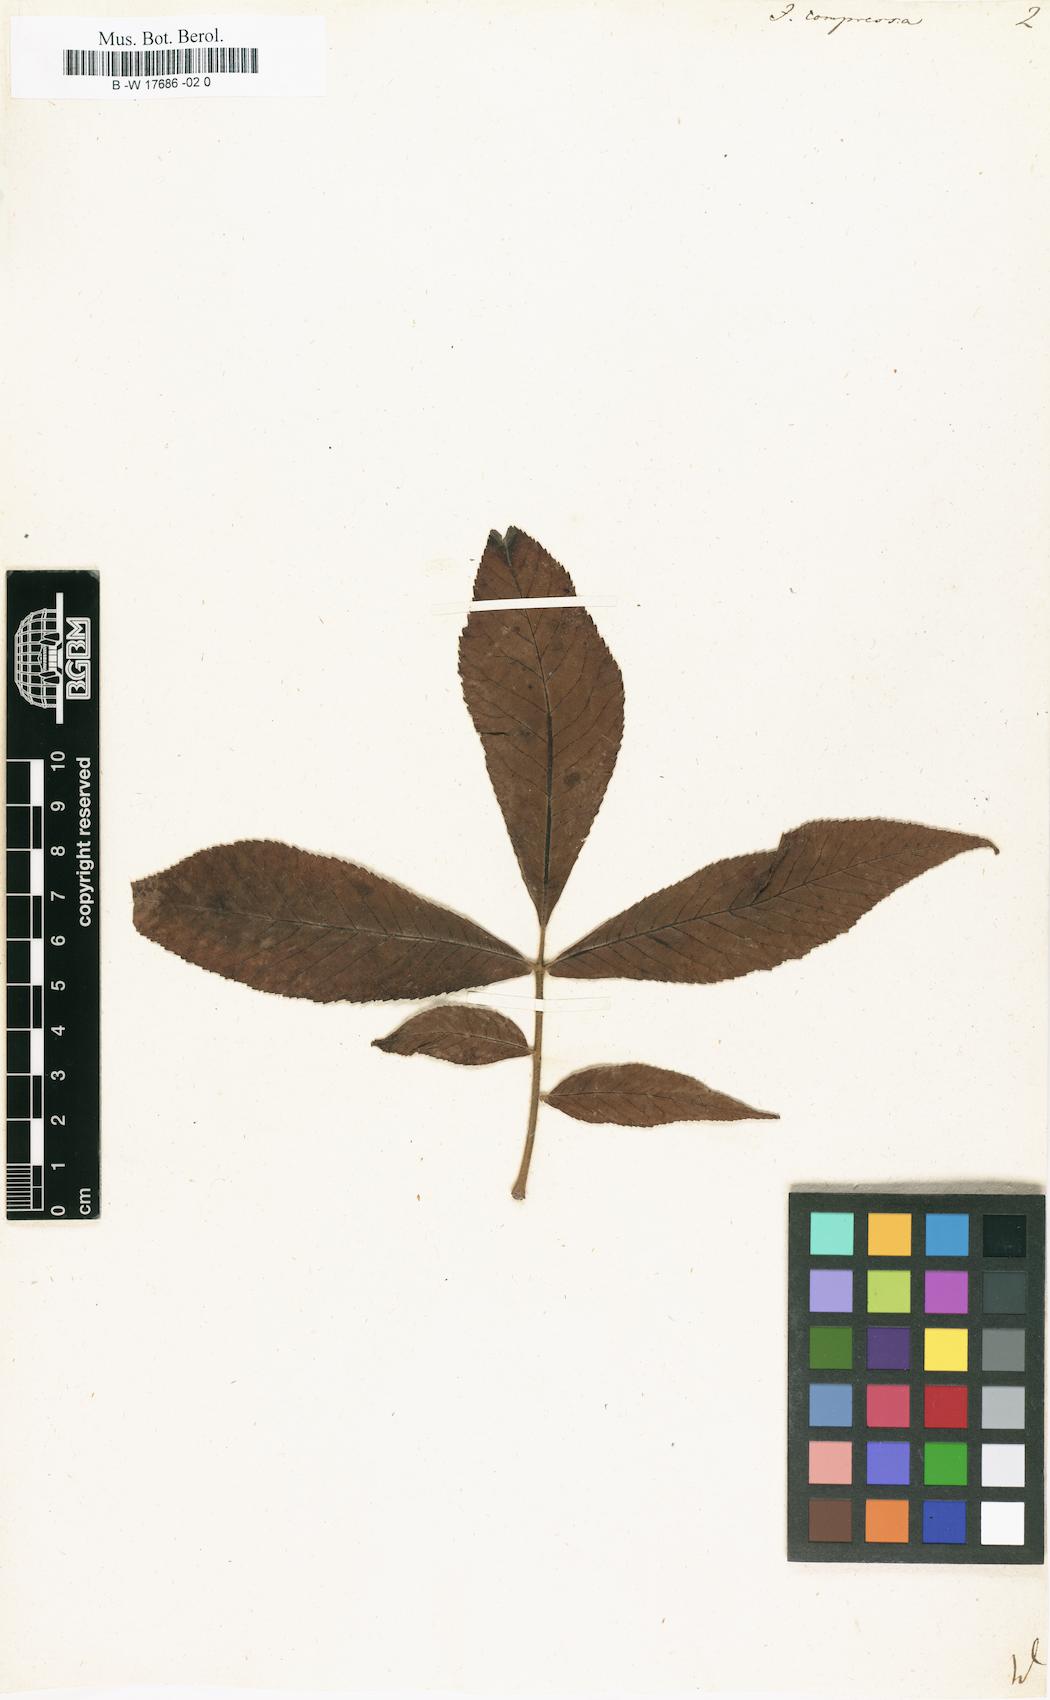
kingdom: Plantae
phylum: Tracheophyta
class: Magnoliopsida
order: Fagales
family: Juglandaceae
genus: Carya
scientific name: Carya cordiformis
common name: Bitternut hickory
